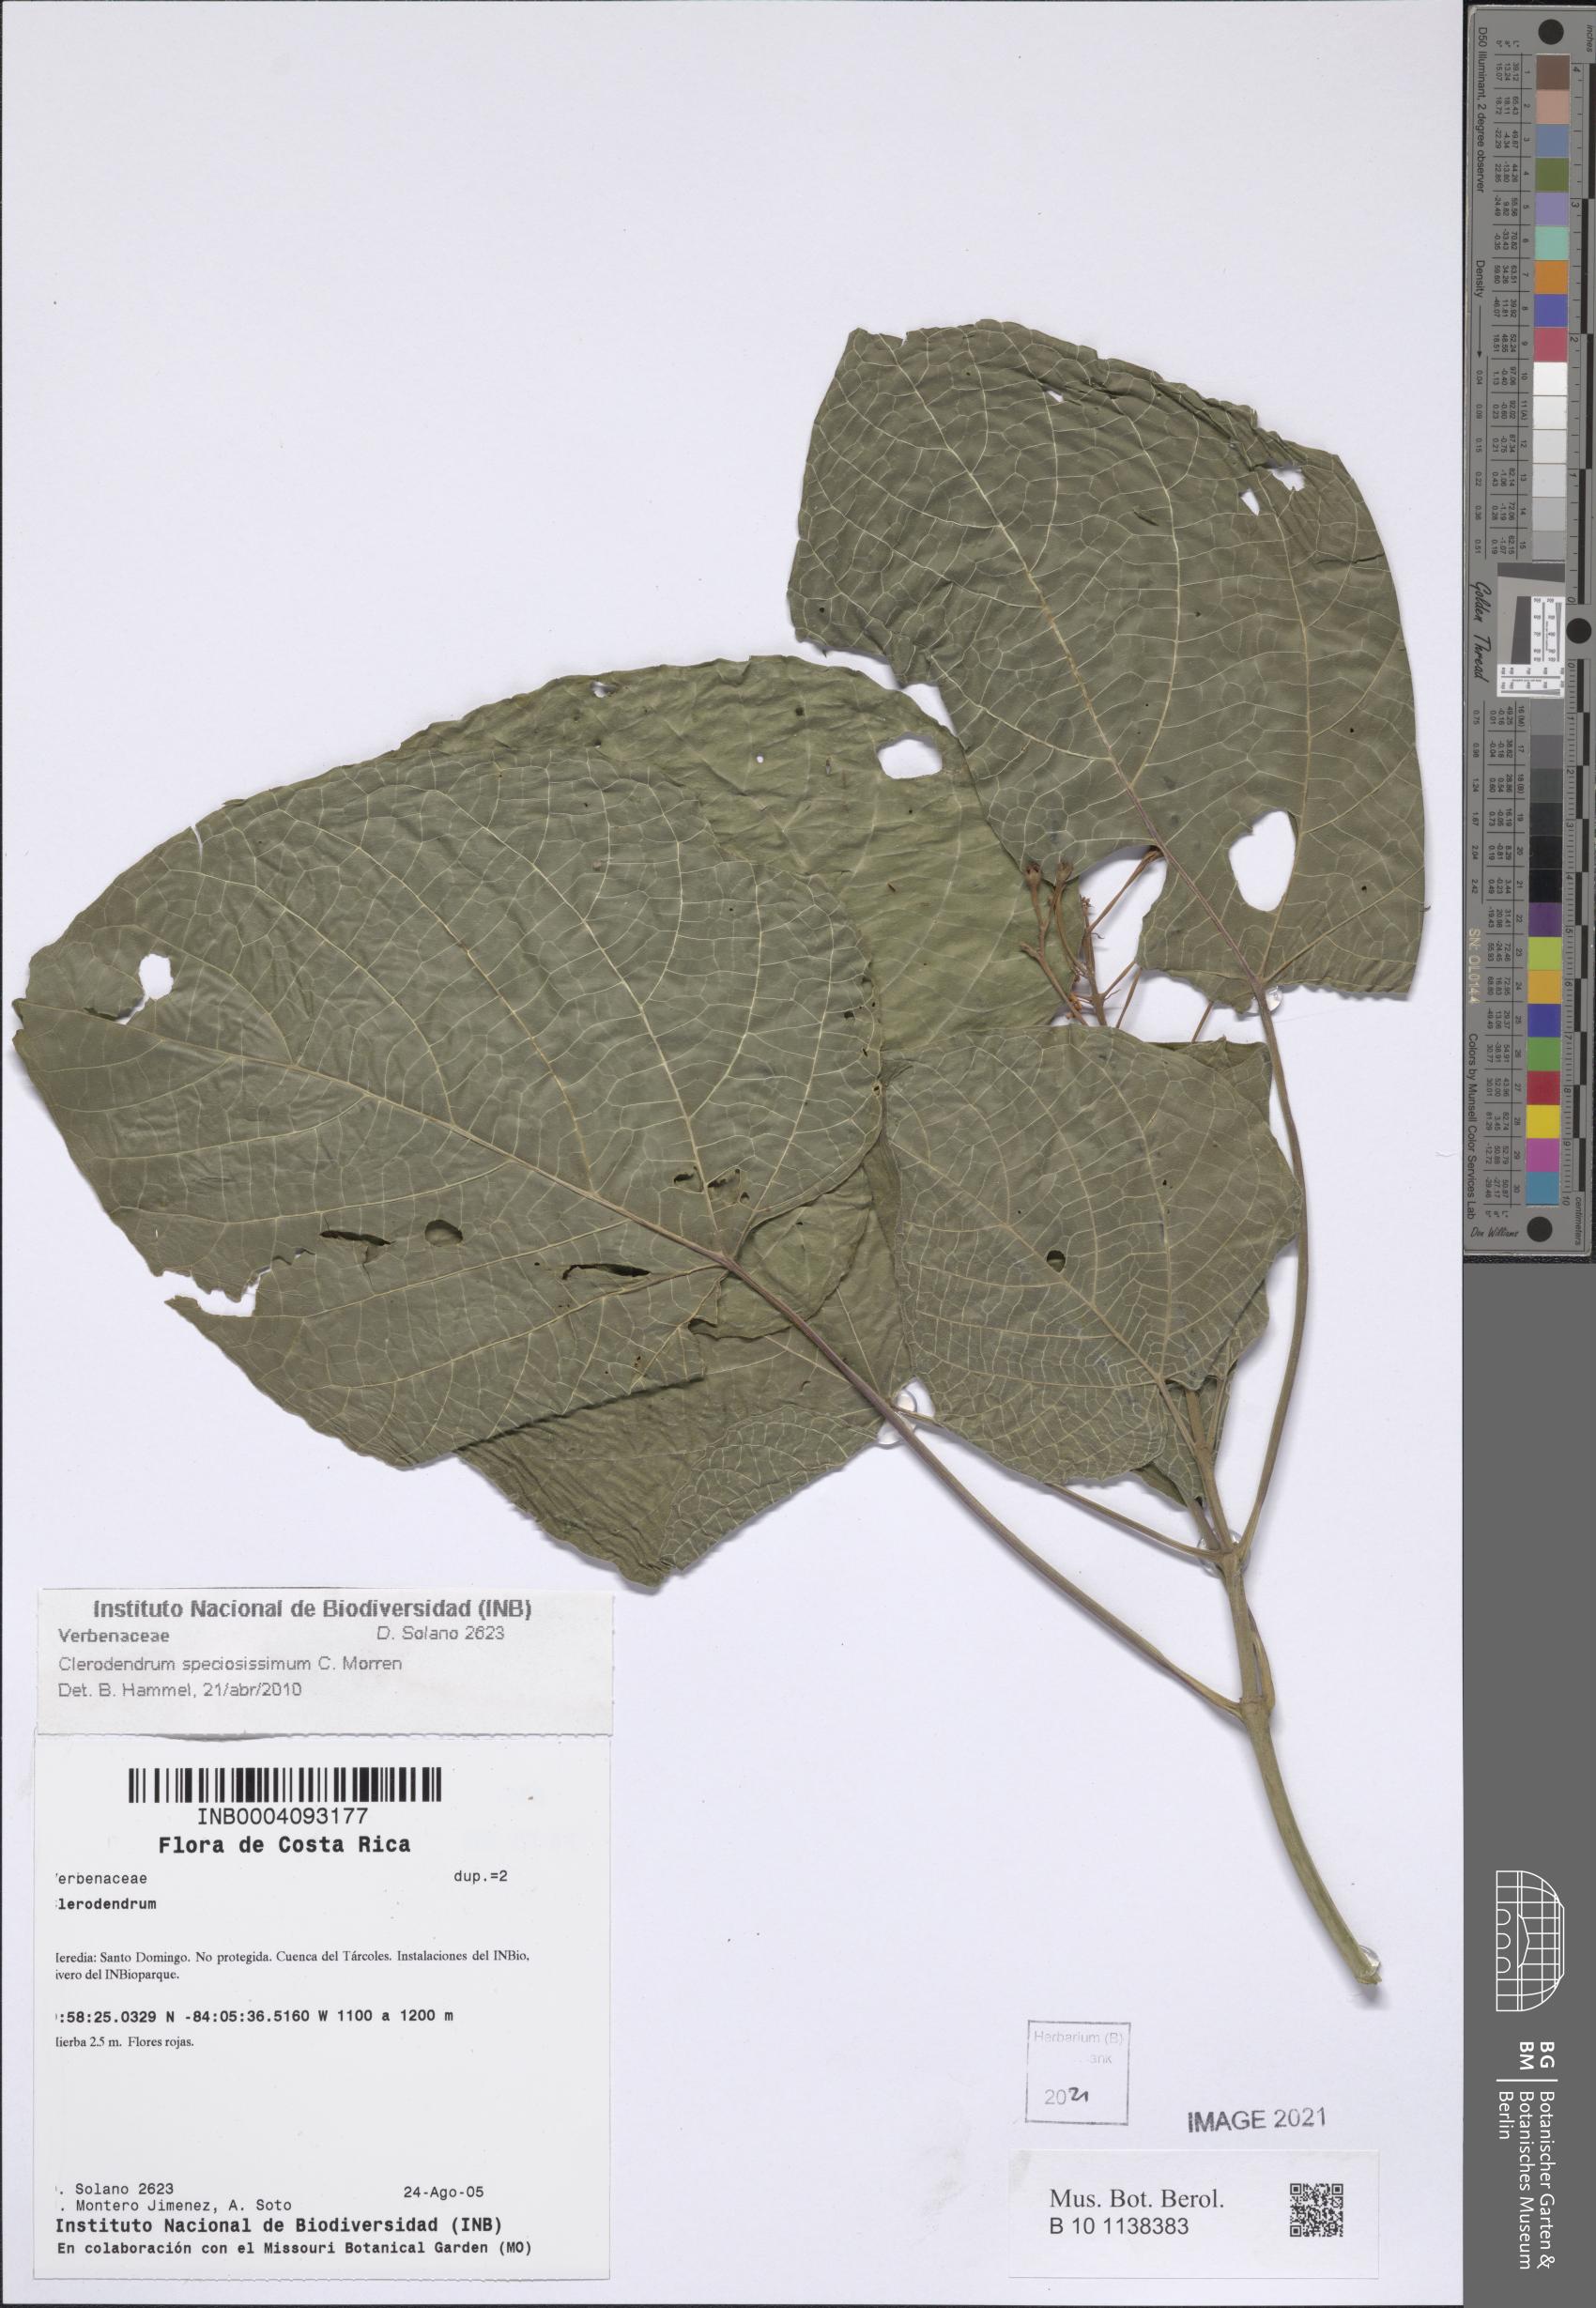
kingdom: Plantae
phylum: Tracheophyta
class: Magnoliopsida
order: Lamiales
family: Lamiaceae
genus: Clerodendrum
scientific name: Clerodendrum speciosissimum
